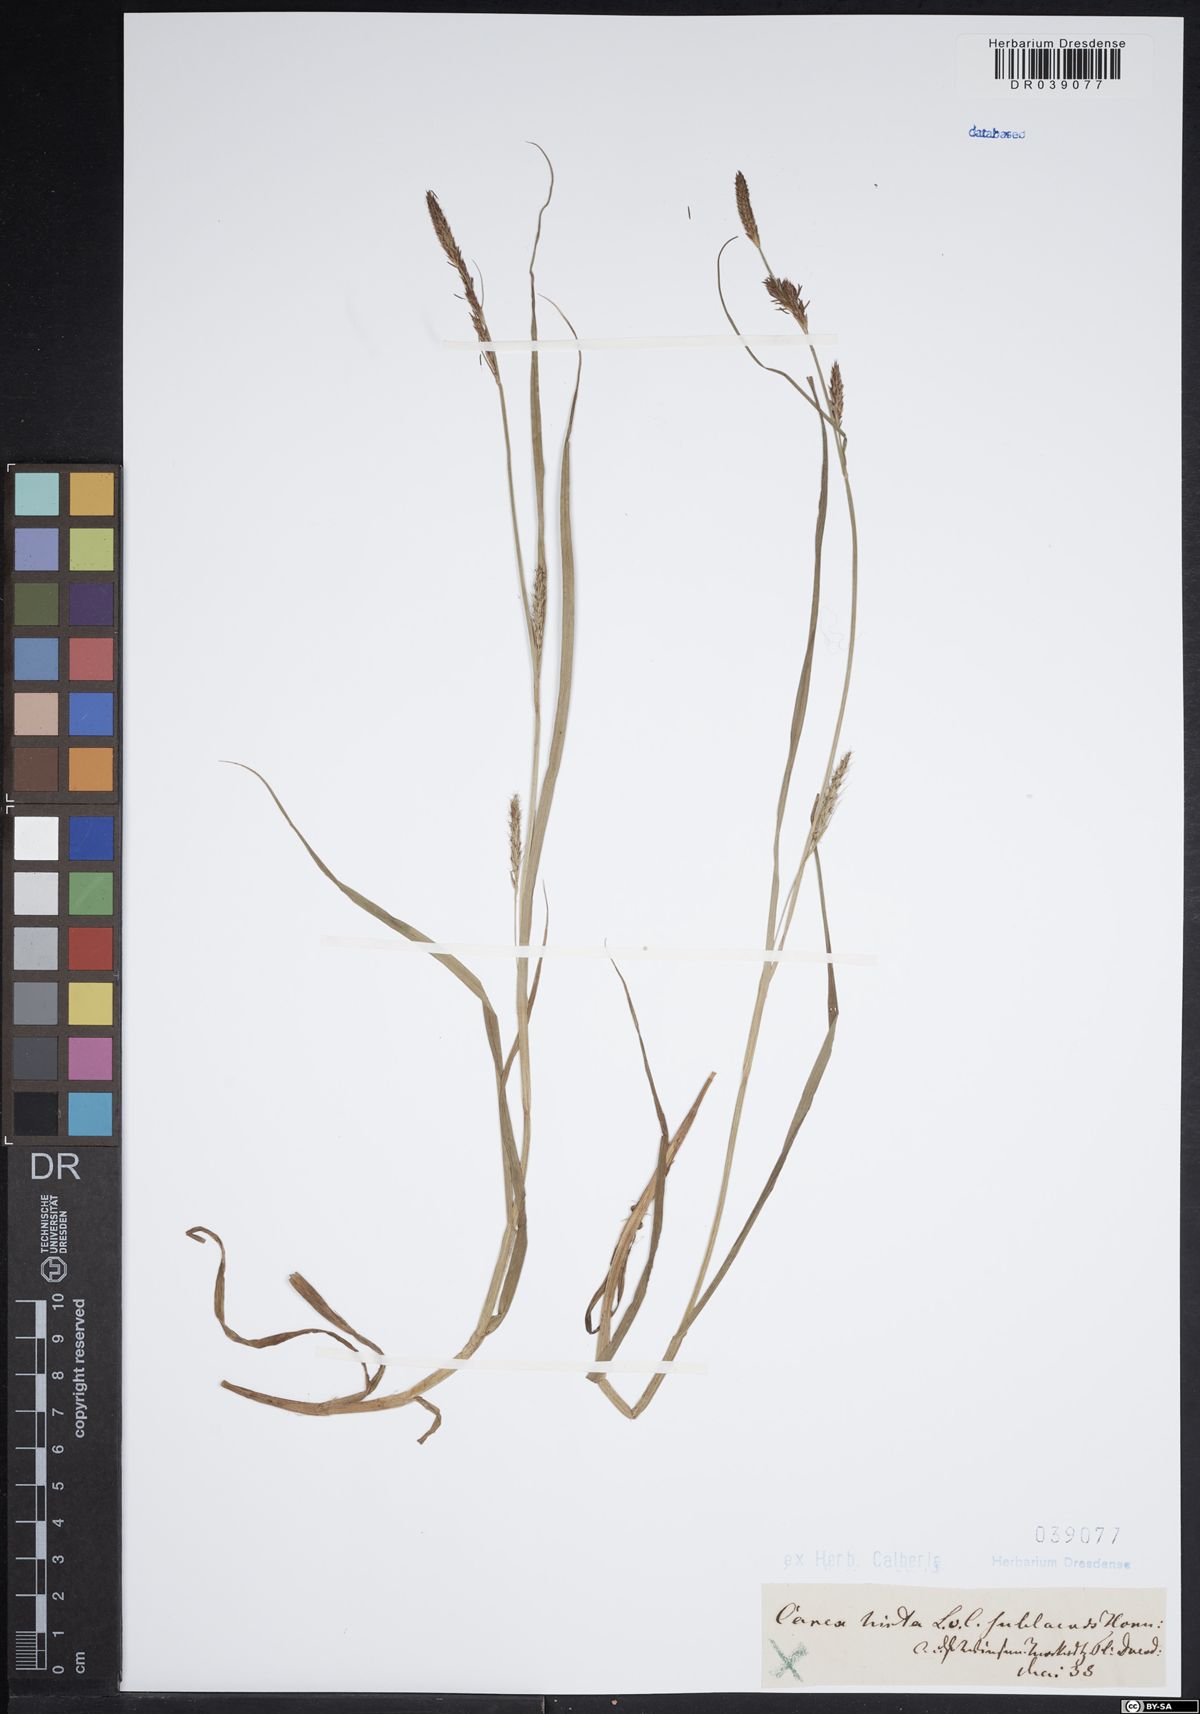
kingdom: Plantae
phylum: Tracheophyta
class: Liliopsida
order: Poales
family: Cyperaceae
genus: Carex
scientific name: Carex hirta
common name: Hairy sedge
